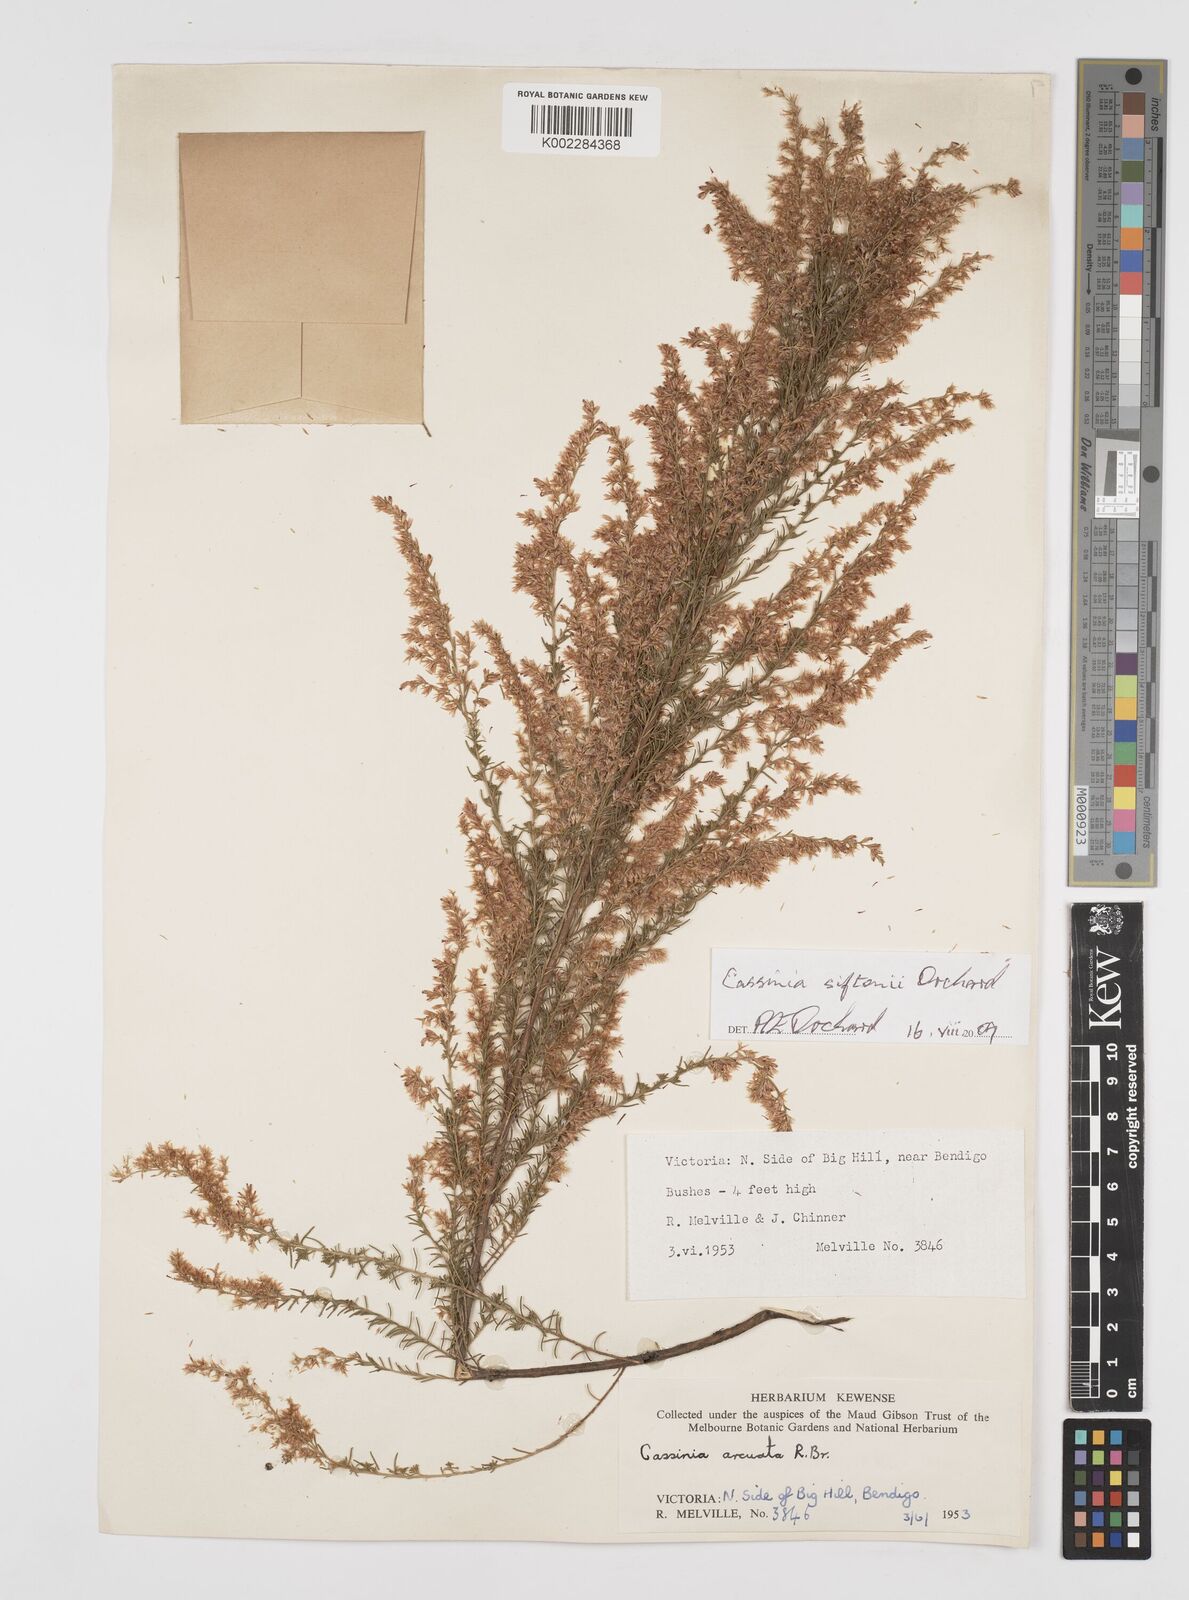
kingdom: Plantae
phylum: Tracheophyta
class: Magnoliopsida
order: Asterales
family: Asteraceae
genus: Cassinia
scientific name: Cassinia arcuata
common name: Chineseshrub
